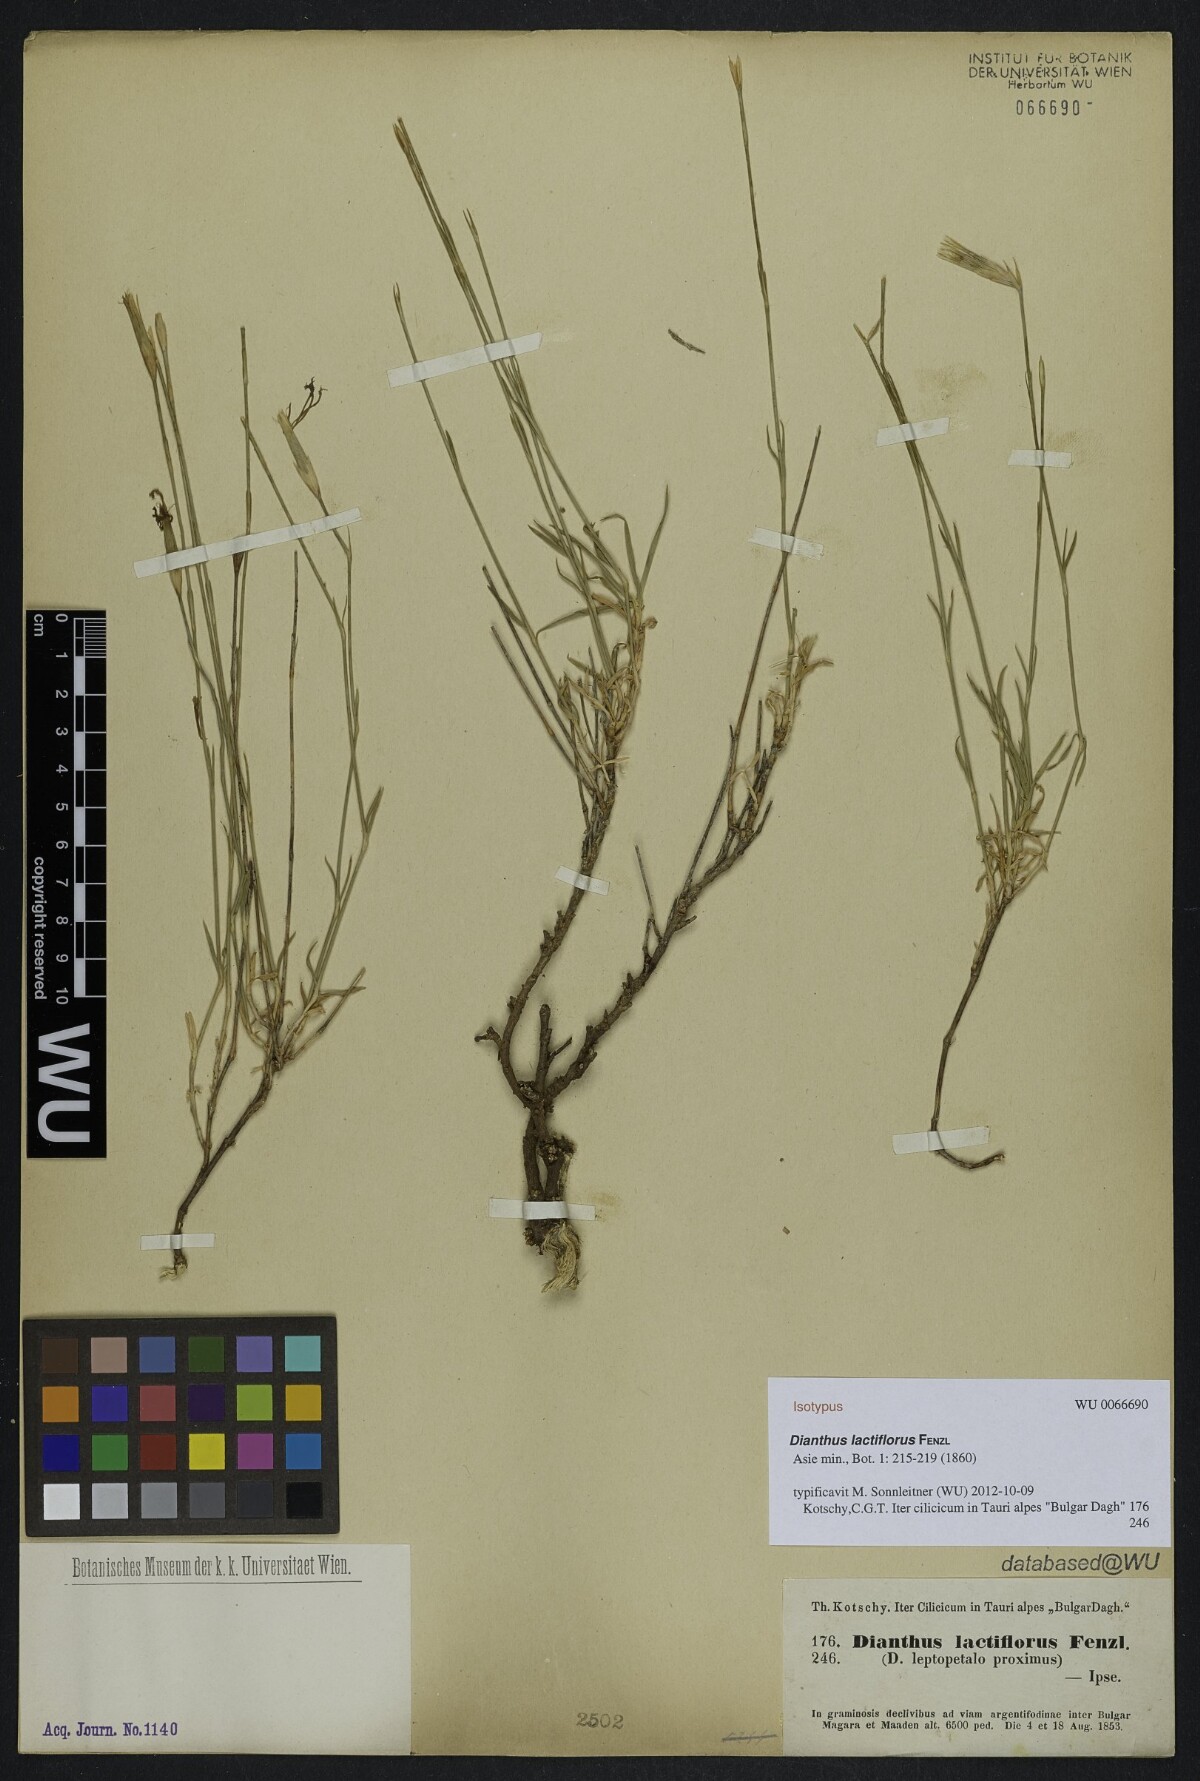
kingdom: Plantae
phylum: Tracheophyta
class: Magnoliopsida
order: Caryophyllales
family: Caryophyllaceae
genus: Dianthus
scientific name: Dianthus lactiflorus
